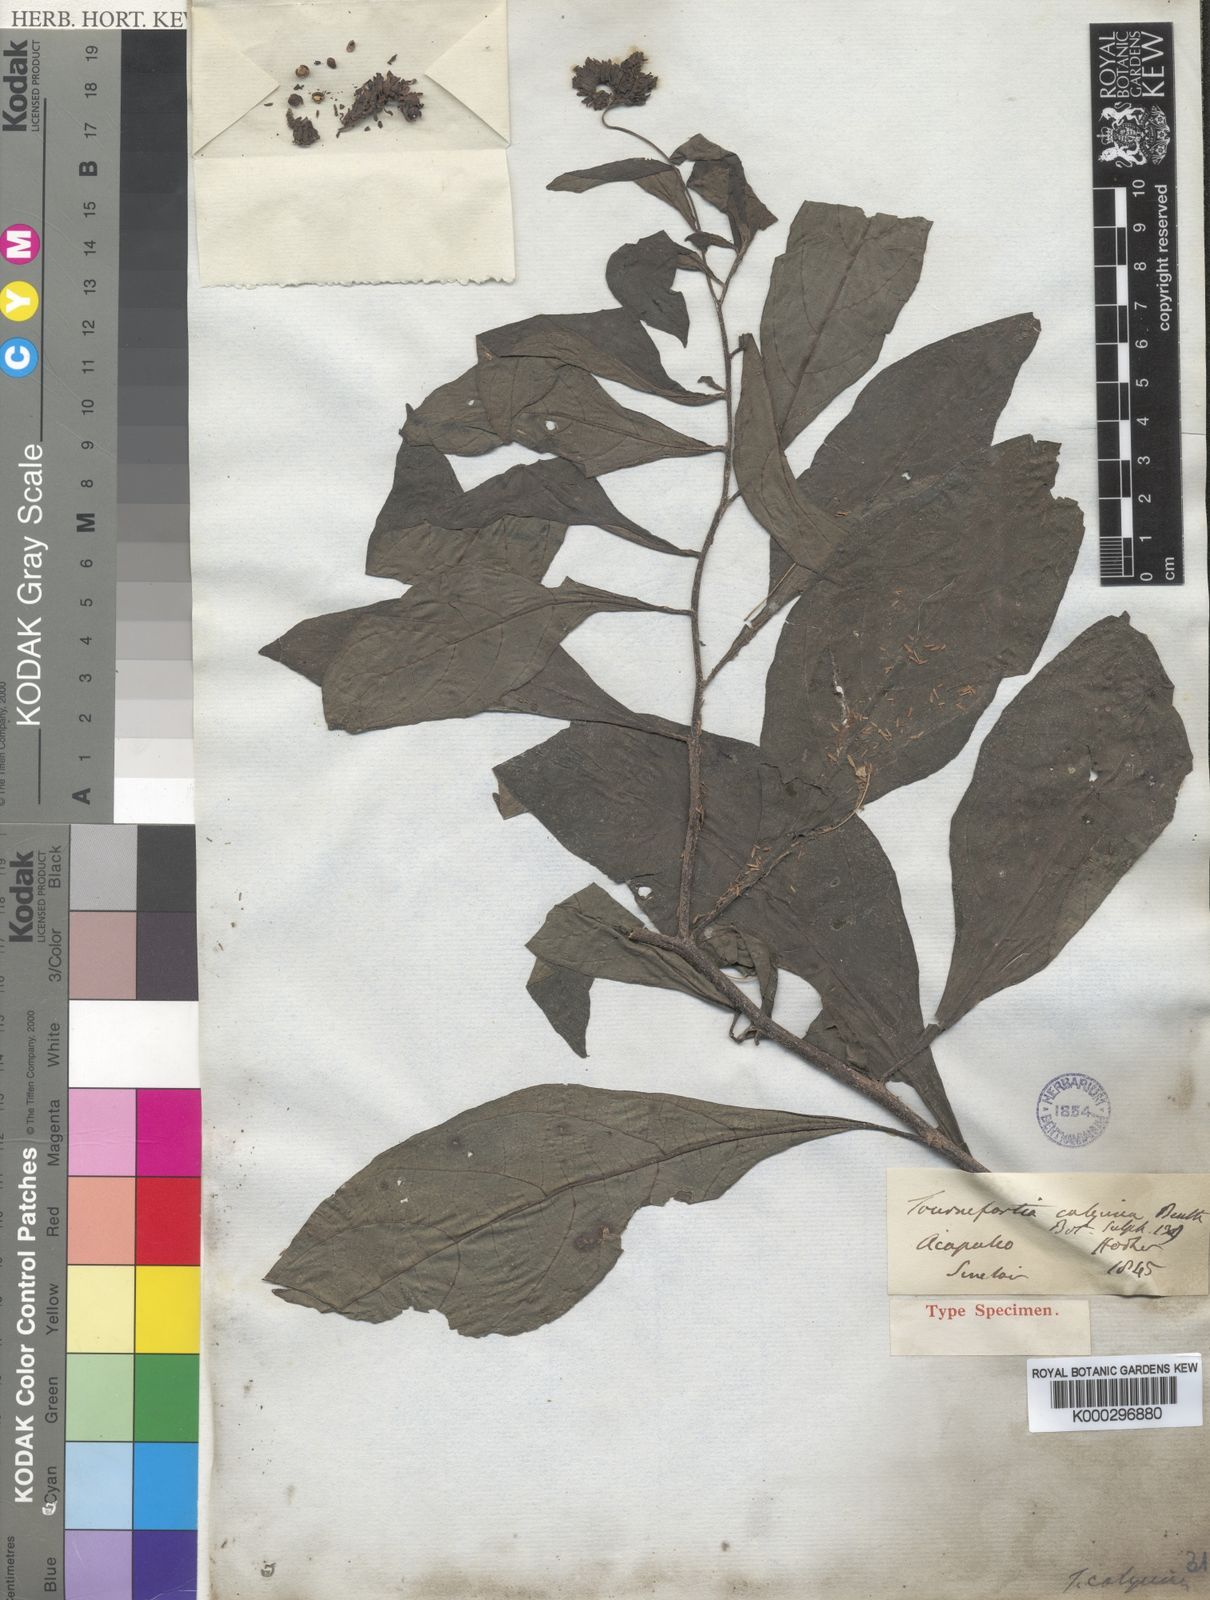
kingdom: Plantae
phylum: Tracheophyta
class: Magnoliopsida
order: Boraginales
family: Heliotropiaceae
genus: Tournefortia
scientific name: Tournefortia calycina
